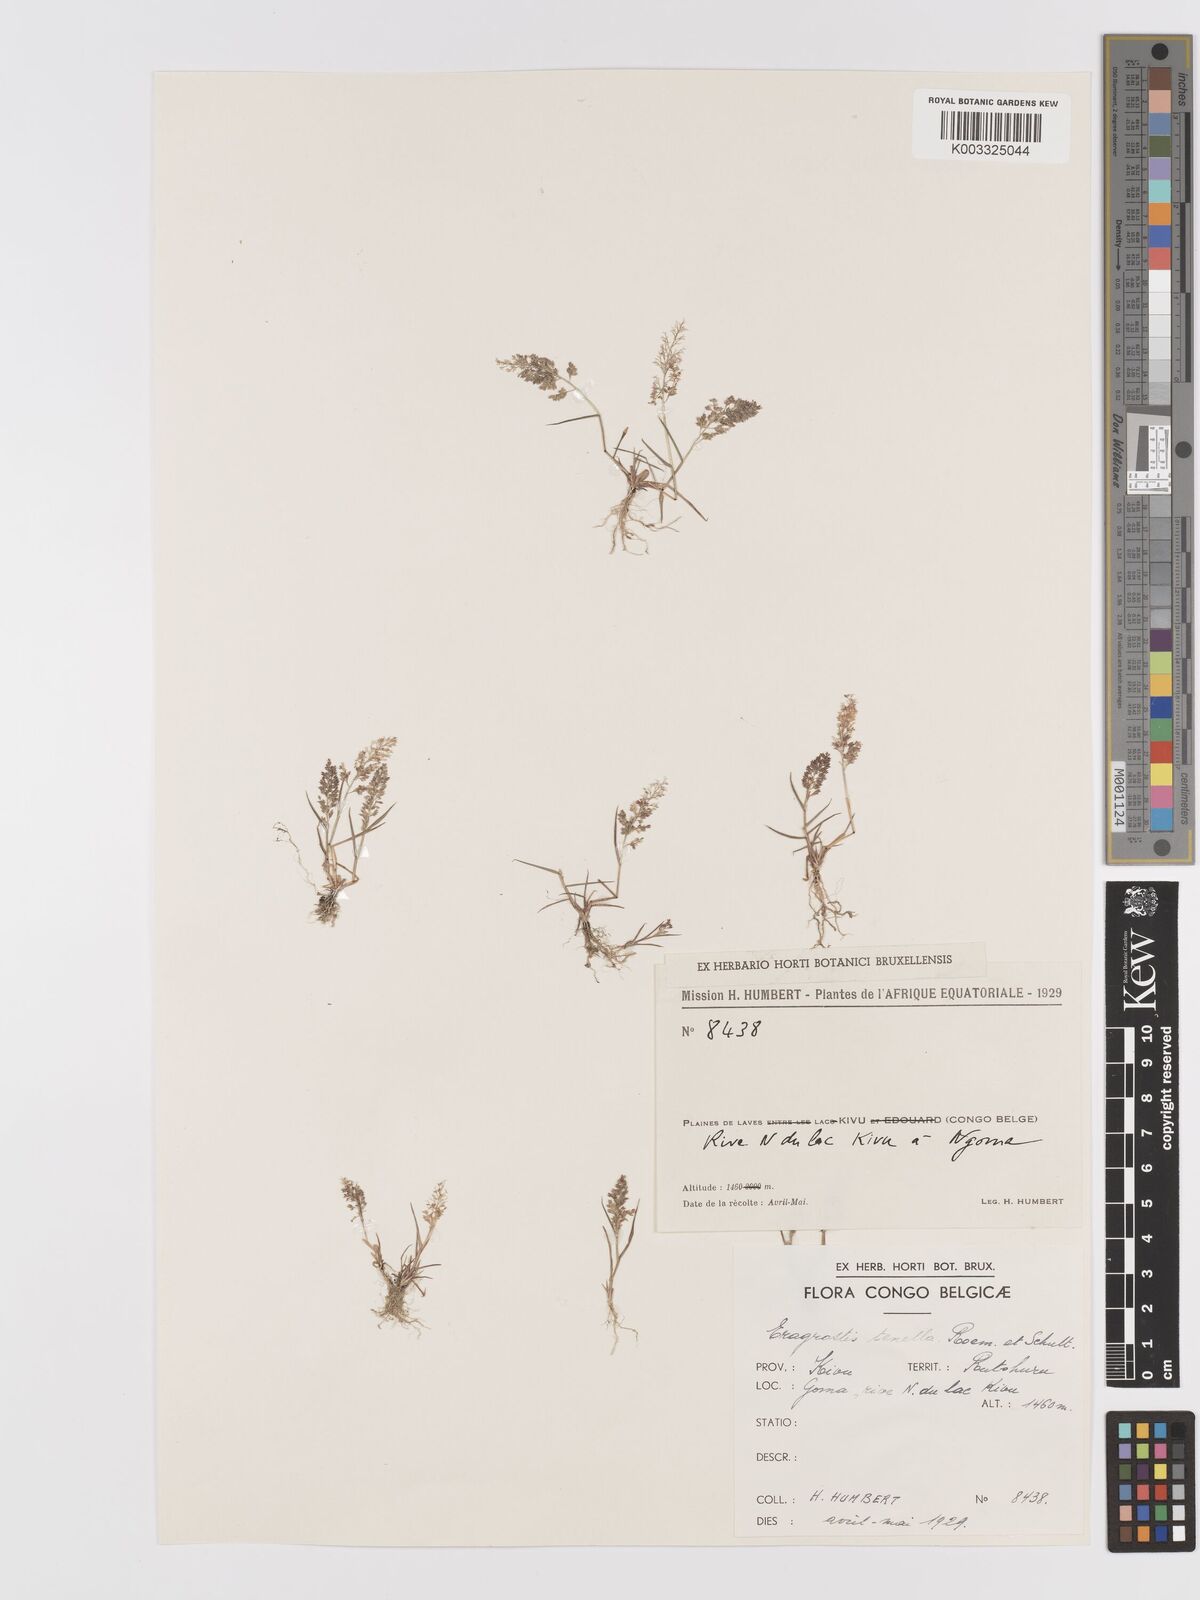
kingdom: Plantae
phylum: Tracheophyta
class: Liliopsida
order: Poales
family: Poaceae
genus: Eragrostis
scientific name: Eragrostis tenella
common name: Japanese lovegrass
